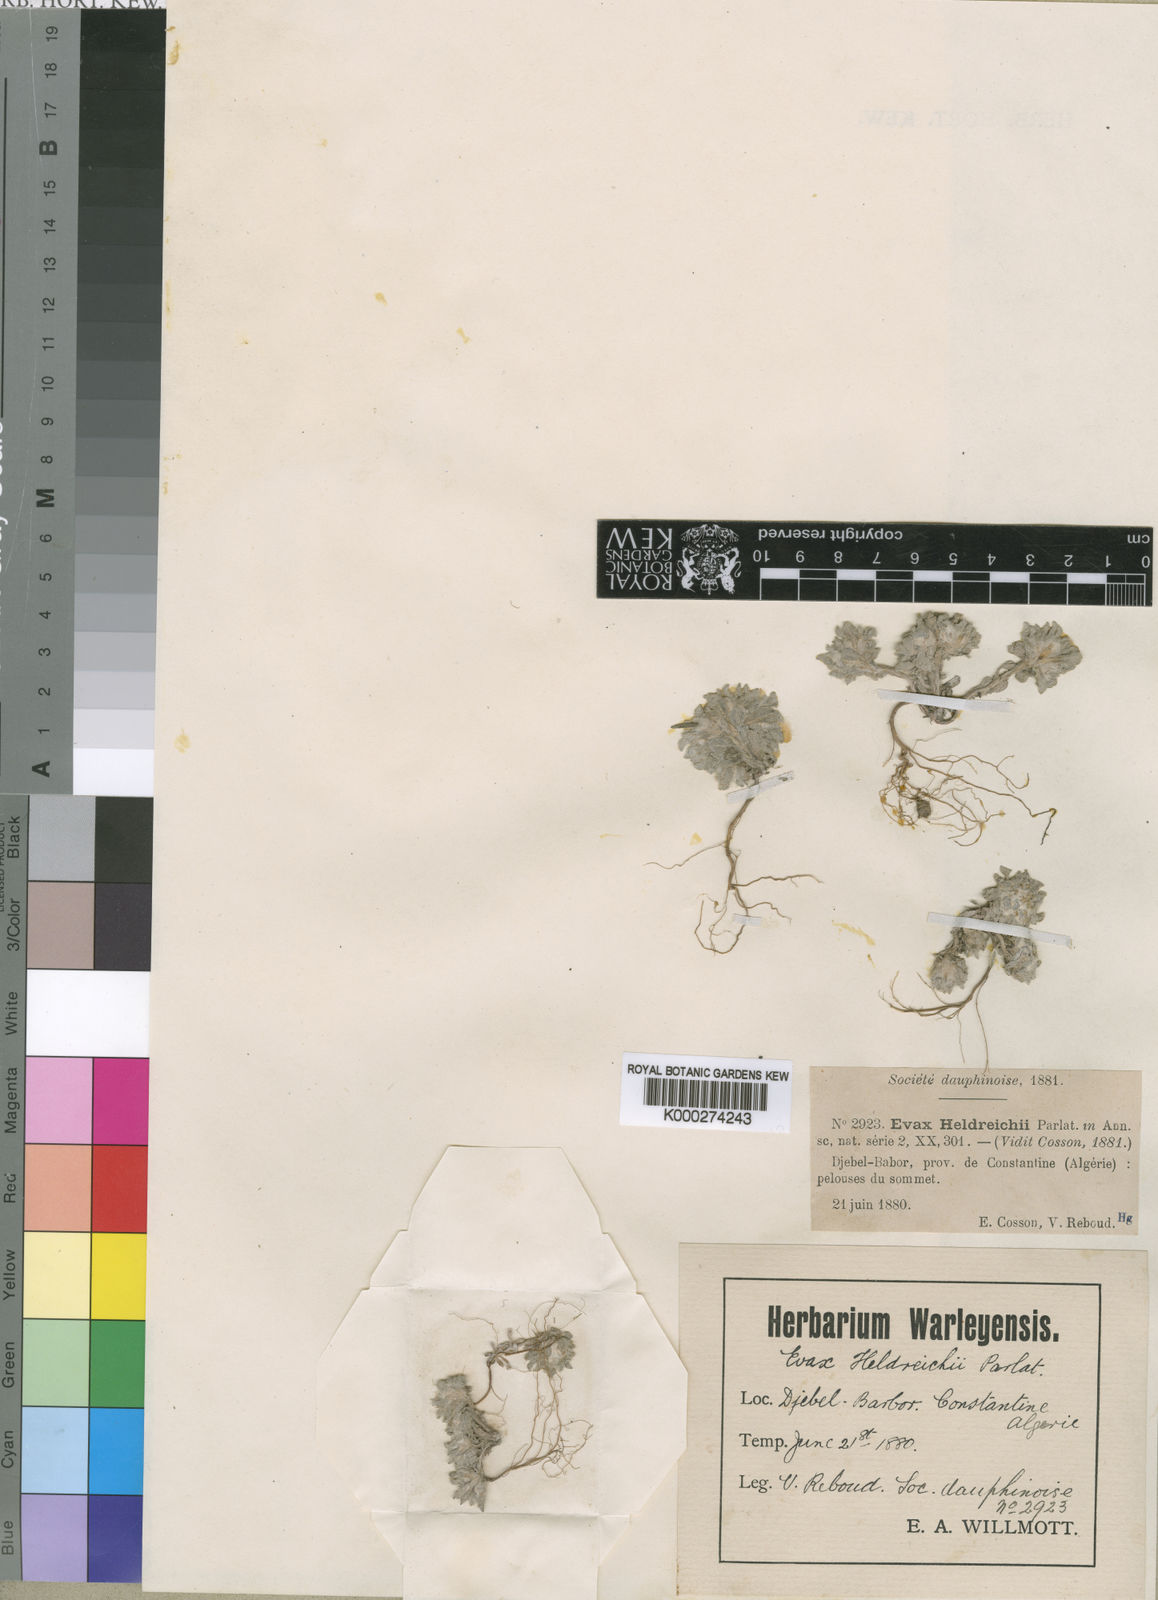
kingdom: Plantae
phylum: Tracheophyta
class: Magnoliopsida
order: Asterales
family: Asteraceae
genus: Filago
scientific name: Filago discolor
